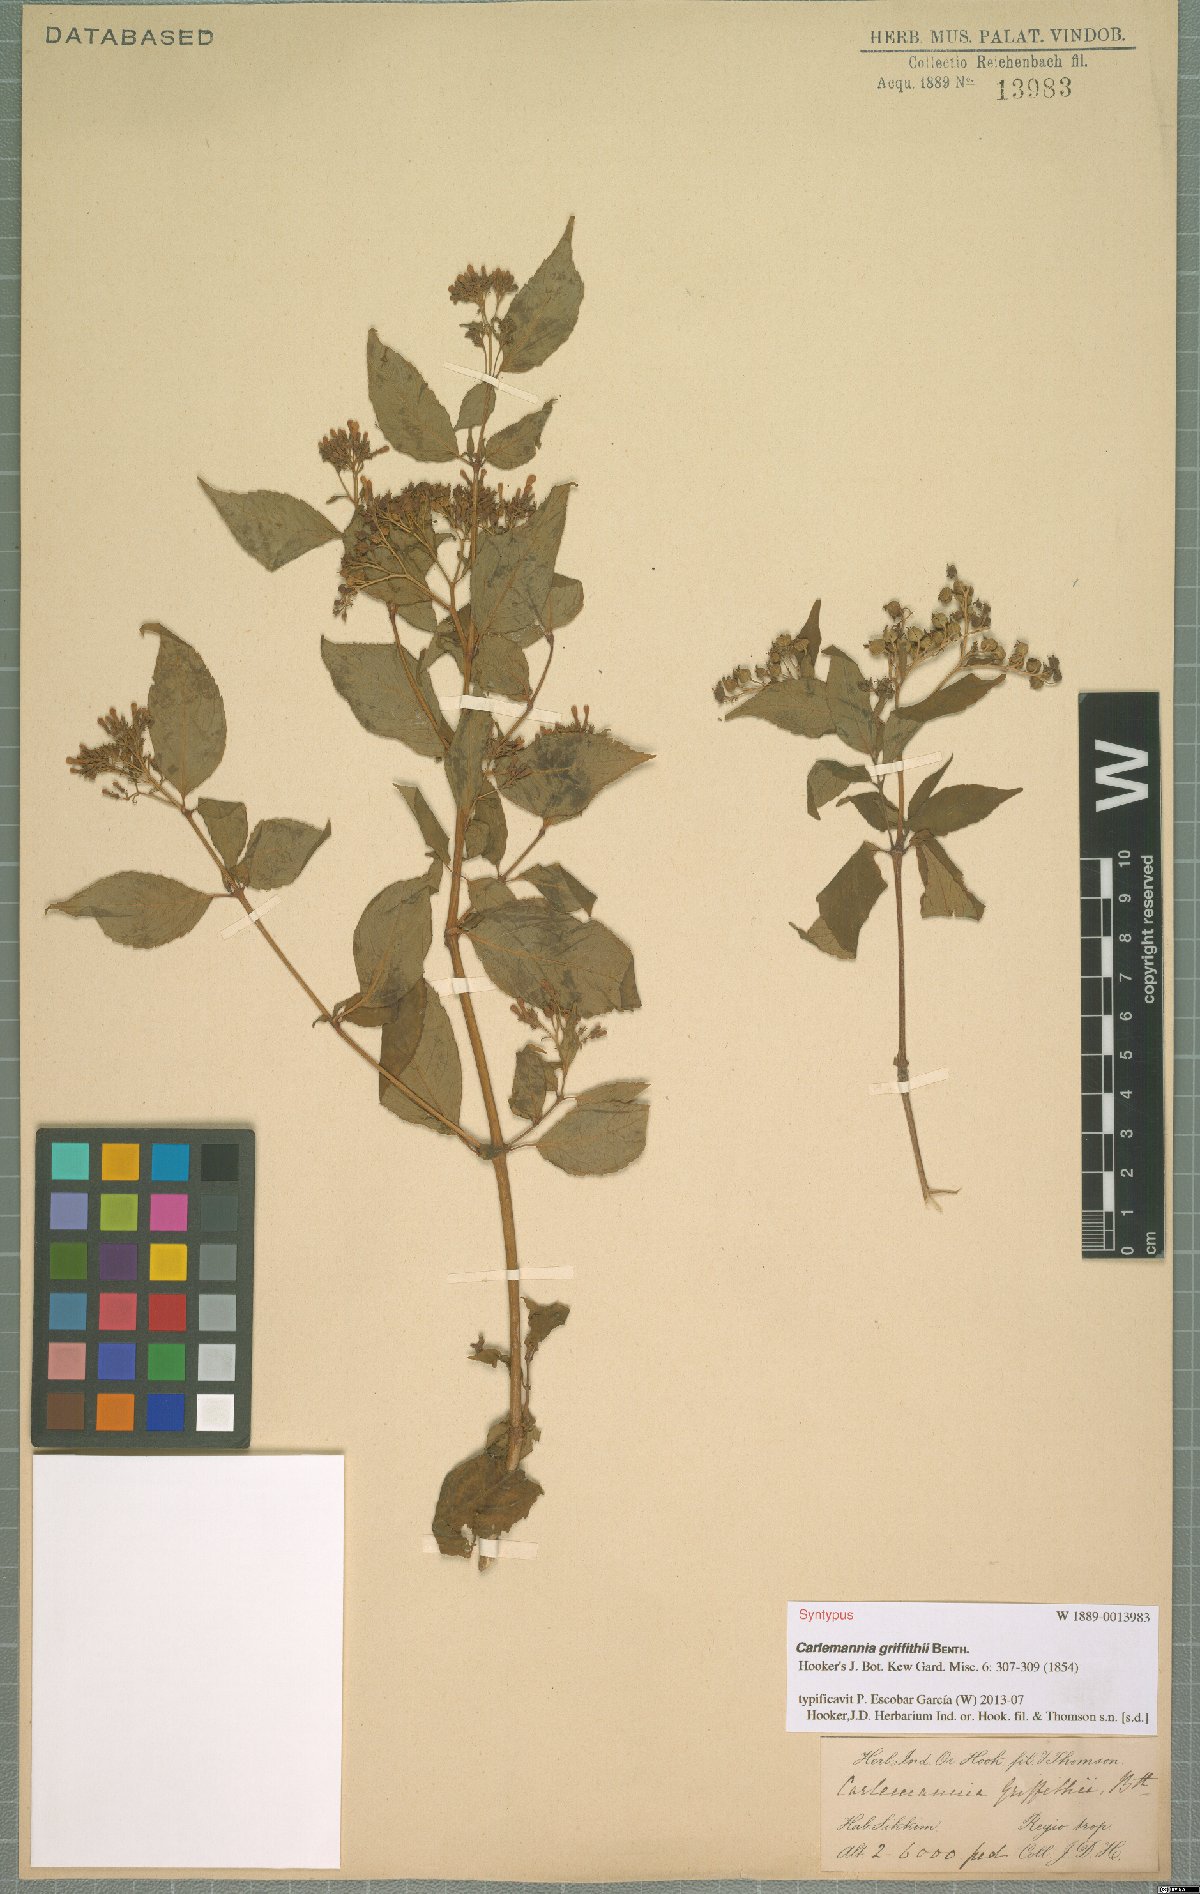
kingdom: Plantae
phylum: Tracheophyta
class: Magnoliopsida
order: Lamiales
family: Carlemanniaceae
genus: Carlemannia
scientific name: Carlemannia griffithii
